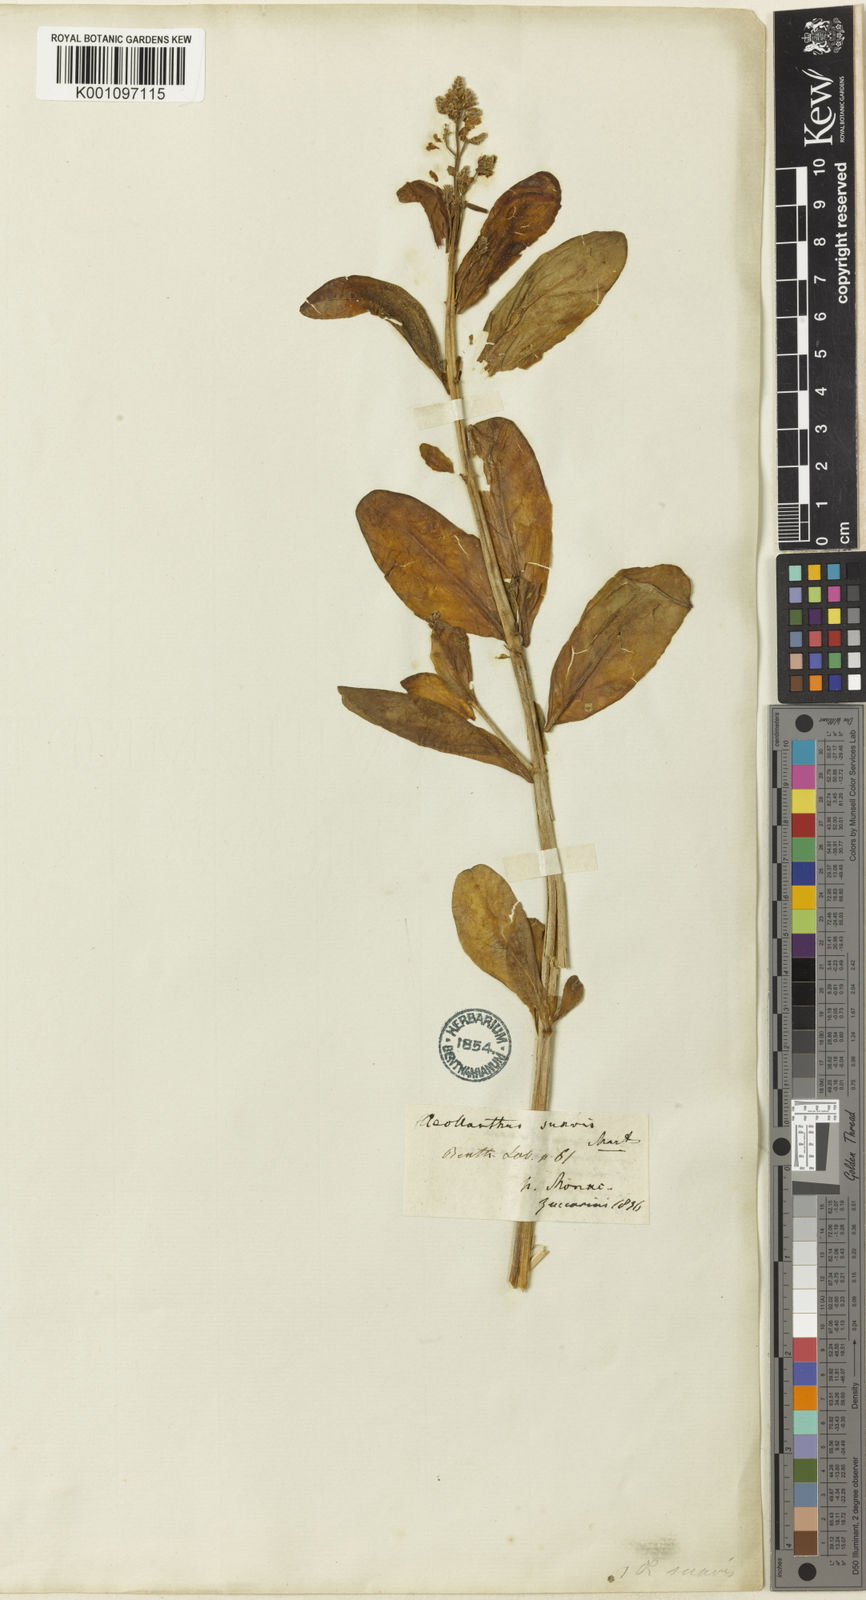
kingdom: Plantae
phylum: Tracheophyta
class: Magnoliopsida
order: Lamiales
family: Lamiaceae
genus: Aeollanthus
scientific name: Aeollanthus suaveolens
